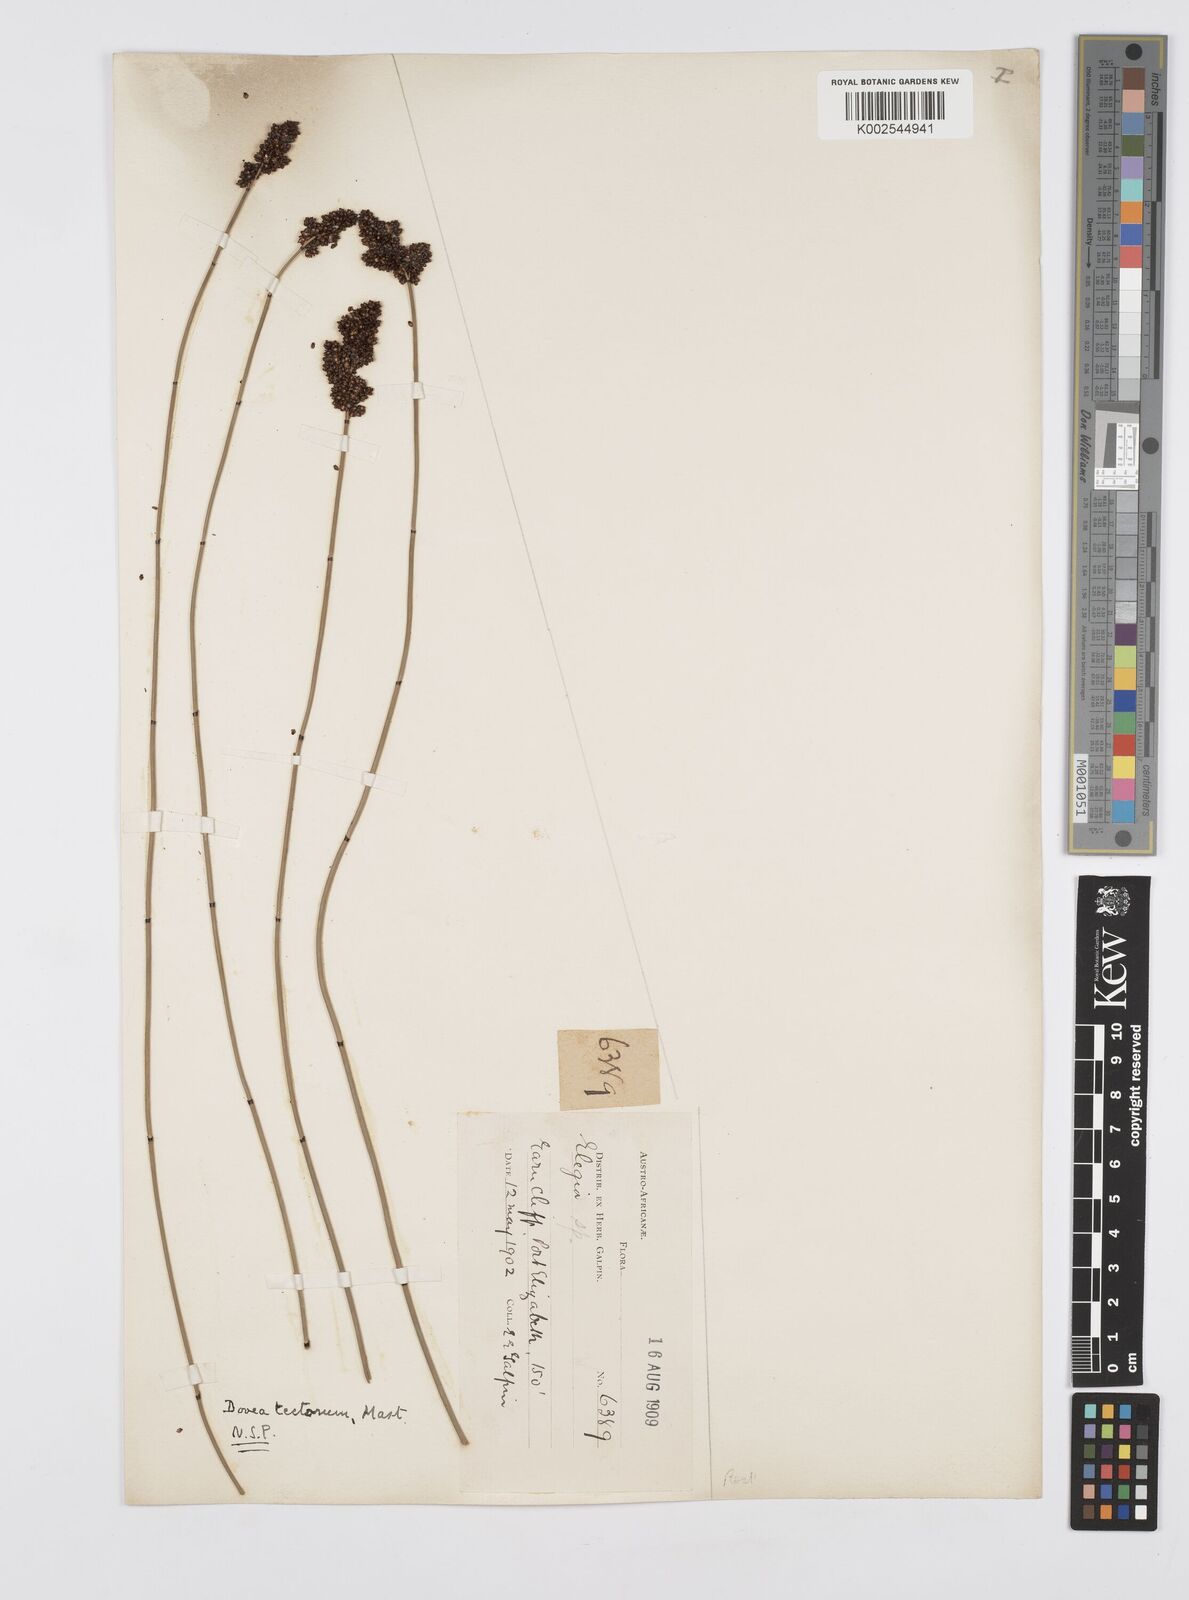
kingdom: Plantae
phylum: Tracheophyta
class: Liliopsida
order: Poales
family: Restionaceae
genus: Elegia
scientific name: Elegia tectorum
